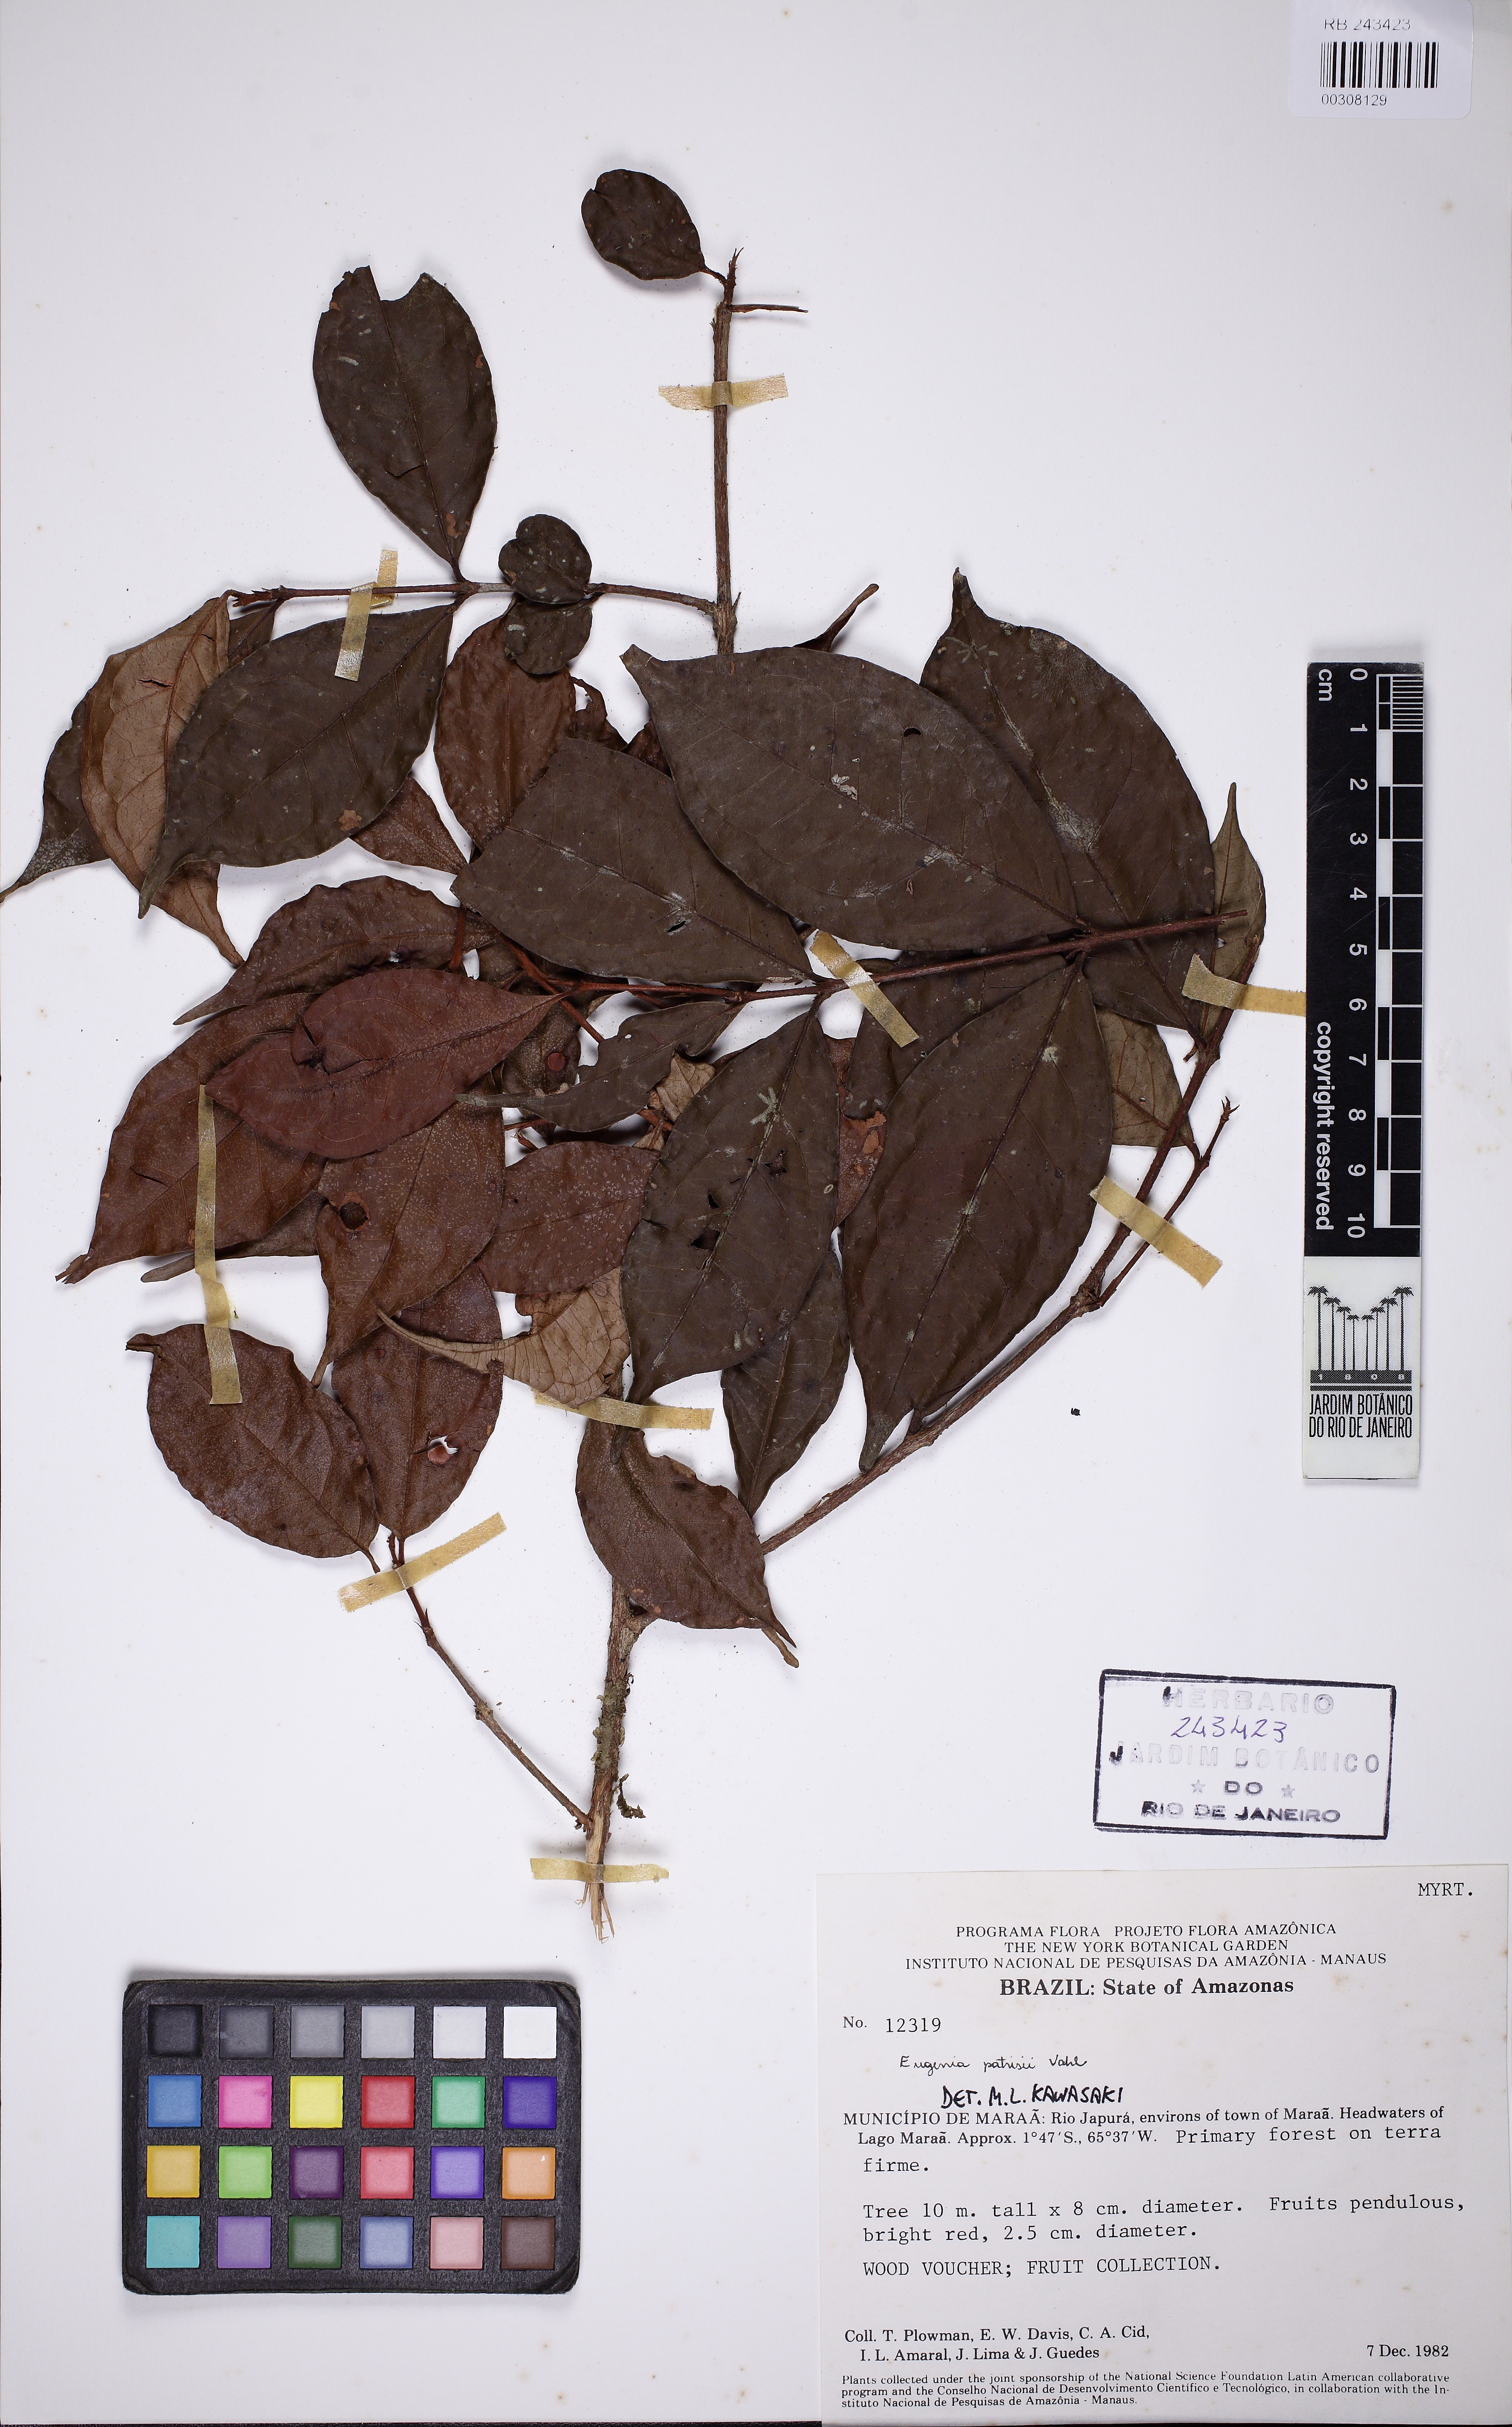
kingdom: Plantae
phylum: Tracheophyta
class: Magnoliopsida
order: Myrtales
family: Myrtaceae
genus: Eugenia
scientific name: Eugenia patrisii
